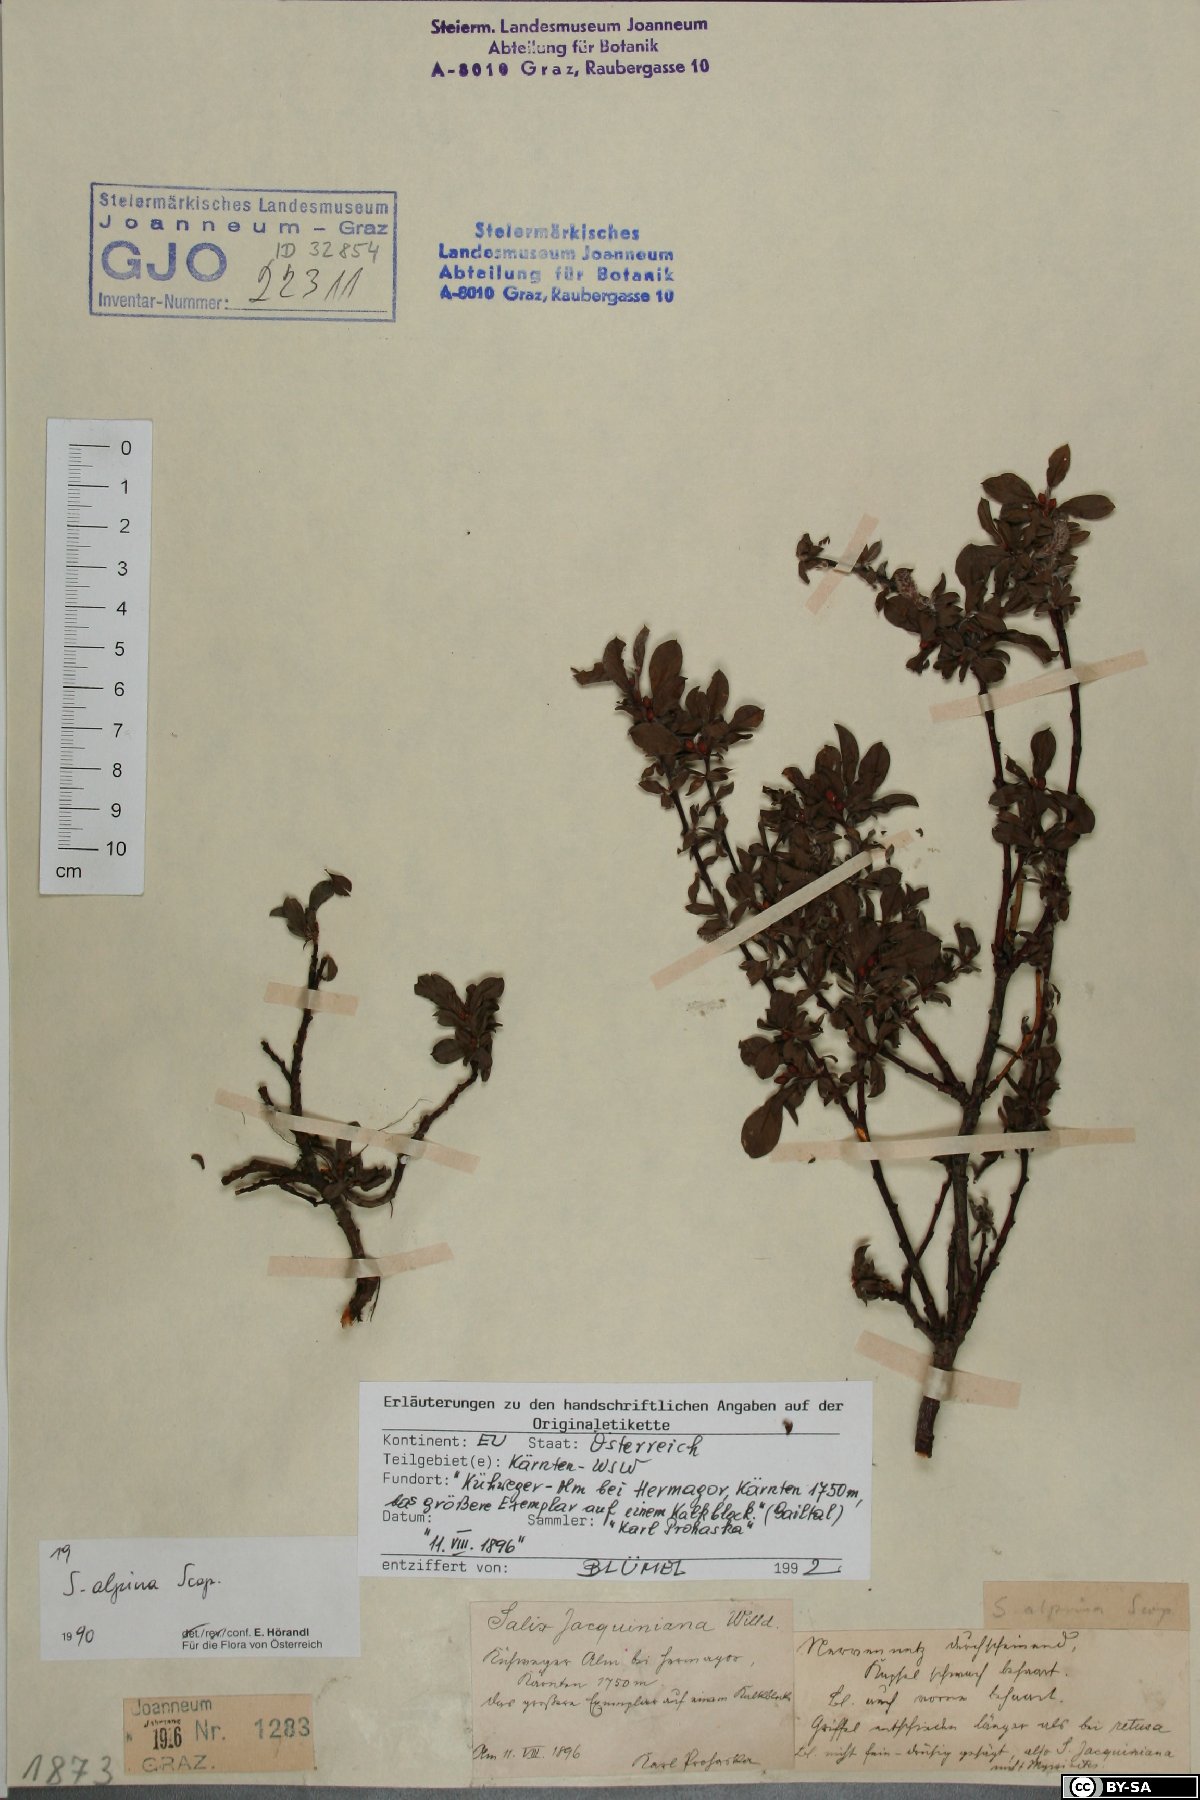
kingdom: Plantae
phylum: Tracheophyta
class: Magnoliopsida
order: Malpighiales
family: Salicaceae
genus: Salix
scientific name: Salix alpina
